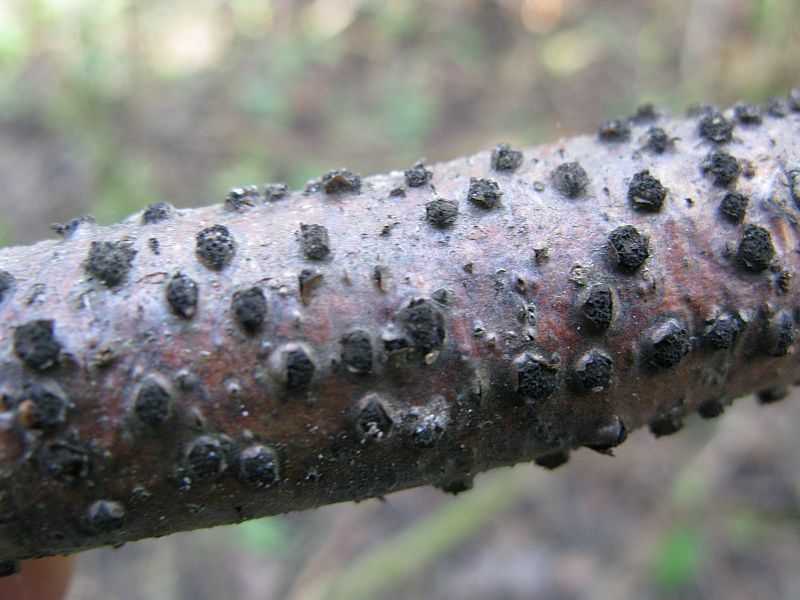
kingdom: Fungi
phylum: Ascomycota
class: Sordariomycetes
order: Xylariales
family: Diatrypaceae
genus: Diatrypella
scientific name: Diatrypella quercina
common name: ege-kulskorpe
